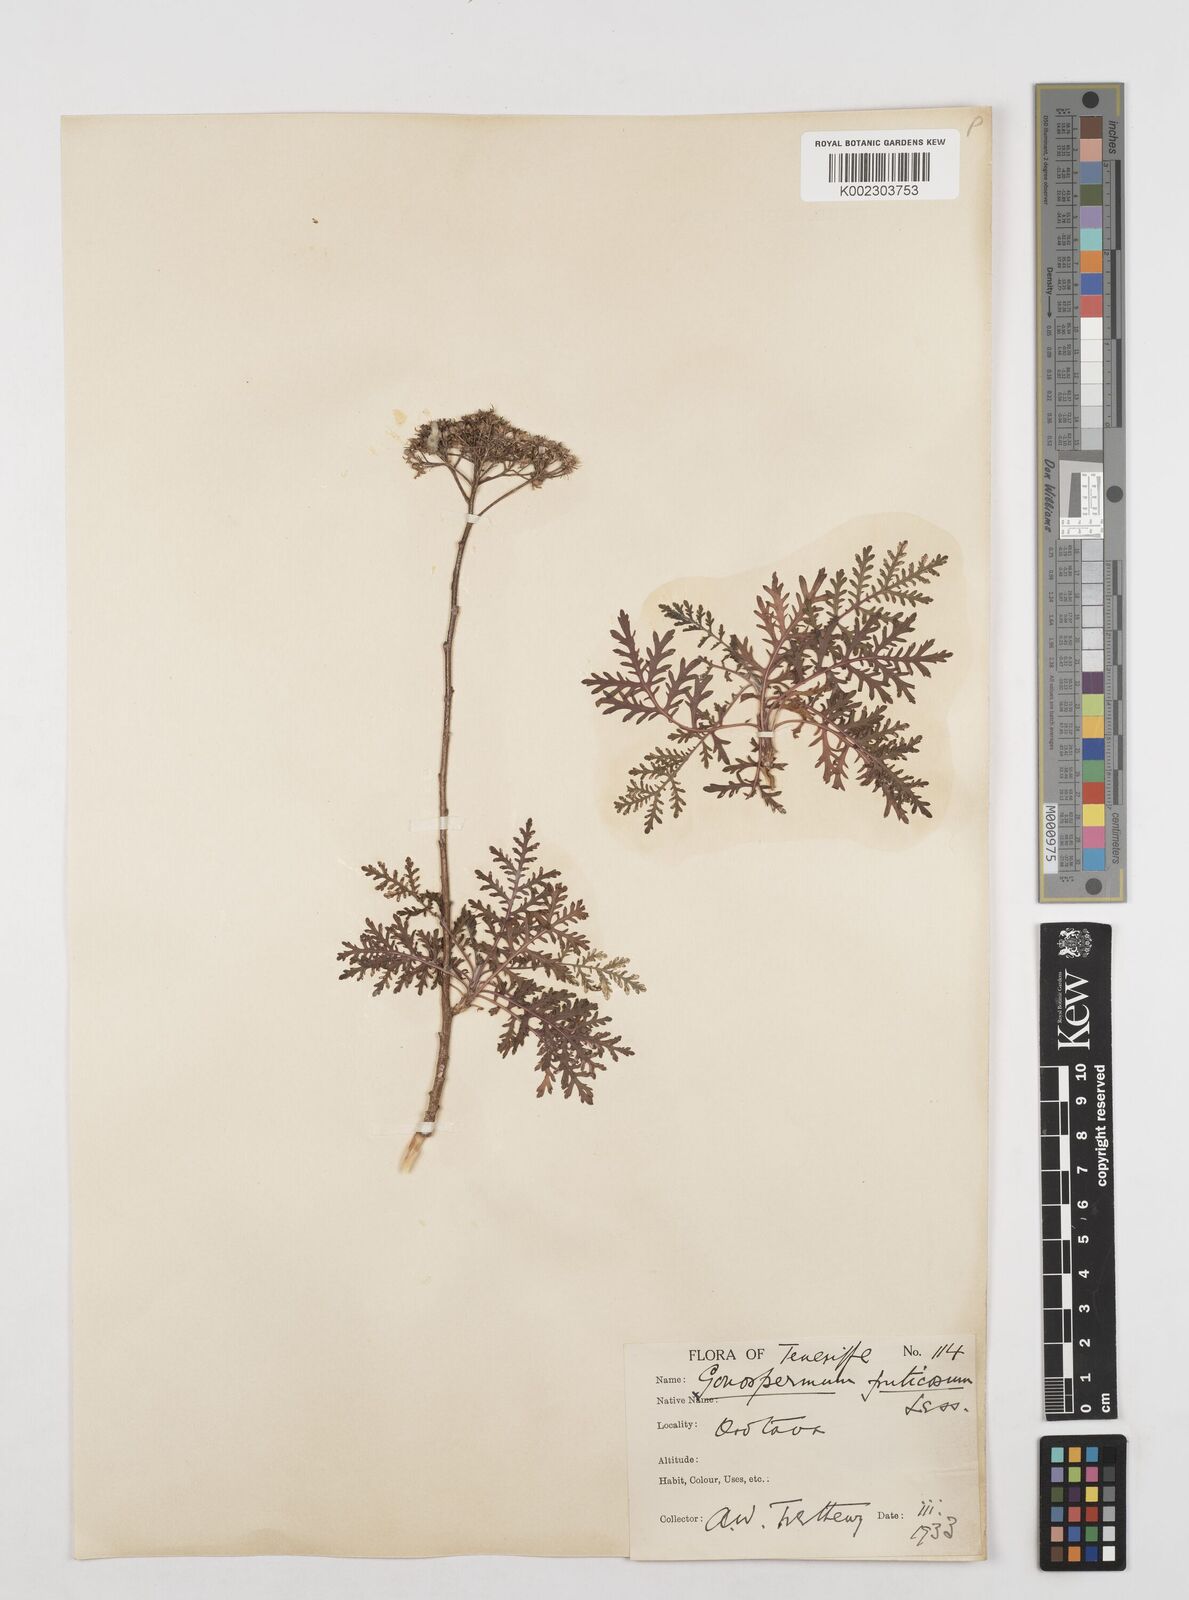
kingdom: Plantae
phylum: Tracheophyta
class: Magnoliopsida
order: Asterales
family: Asteraceae
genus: Gonospermum
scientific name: Gonospermum fruticosum
